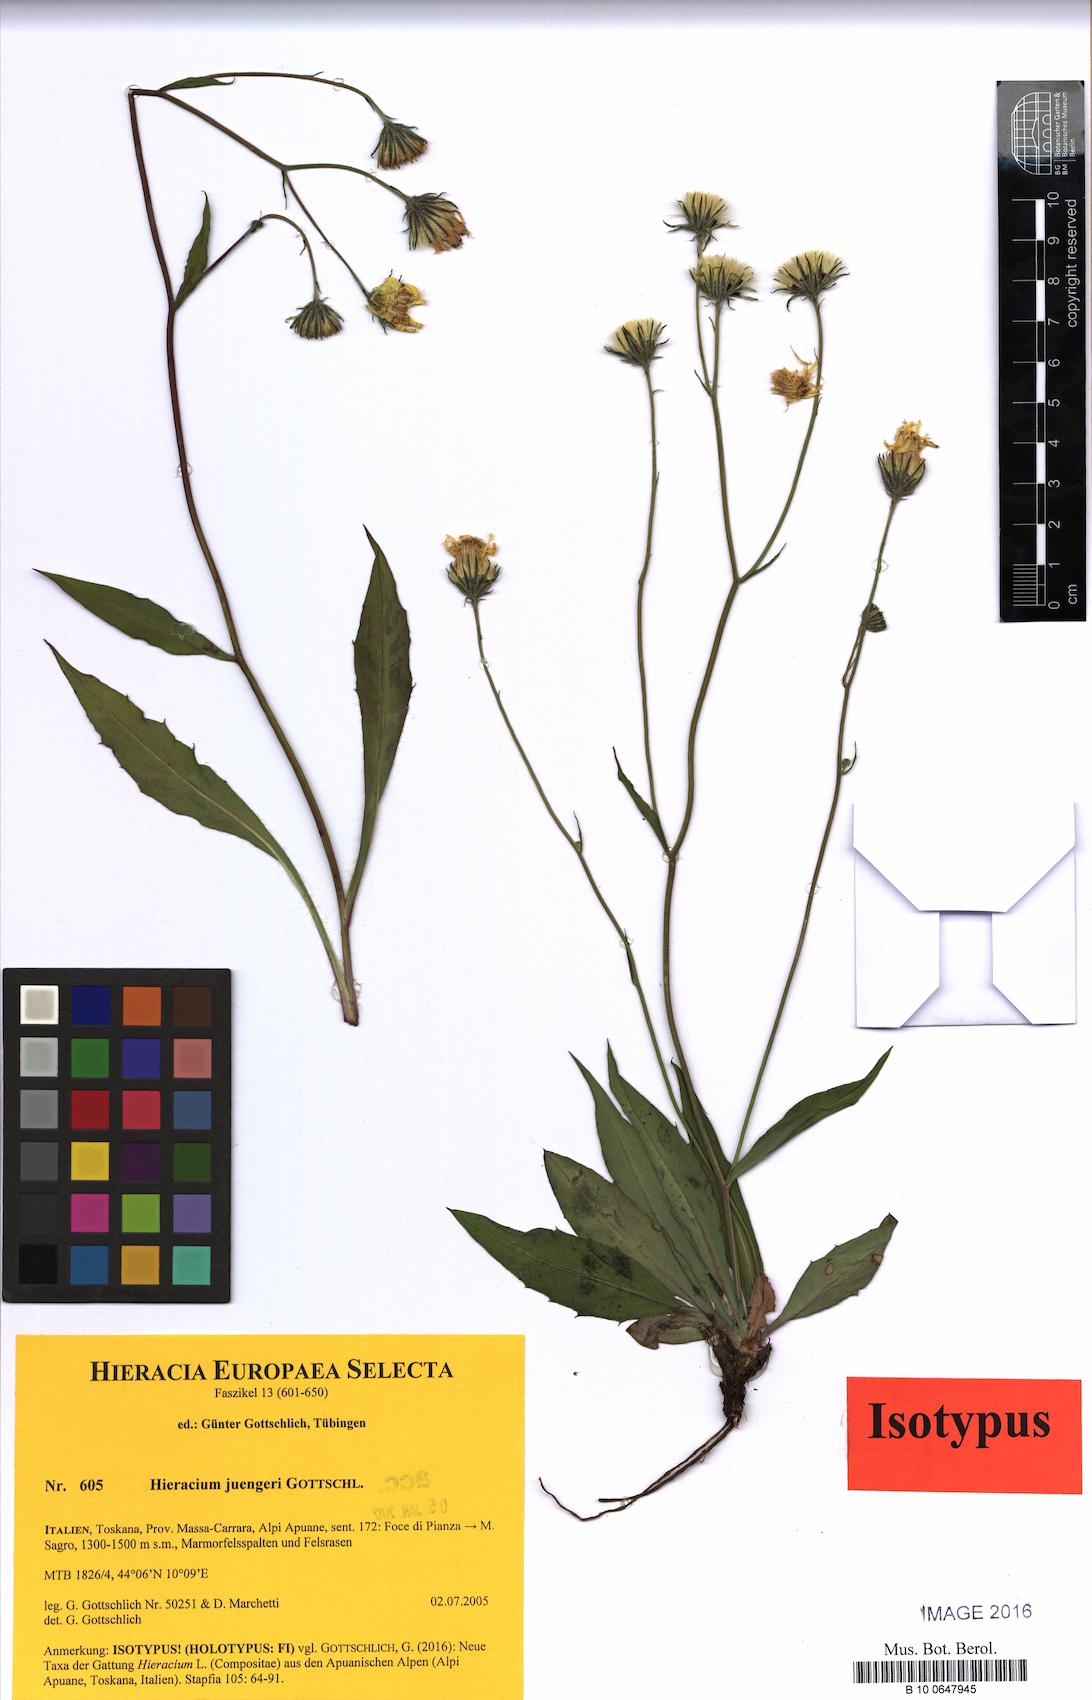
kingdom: Plantae
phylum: Tracheophyta
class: Magnoliopsida
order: Asterales
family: Asteraceae
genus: Hieracium
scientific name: Hieracium juengeri
